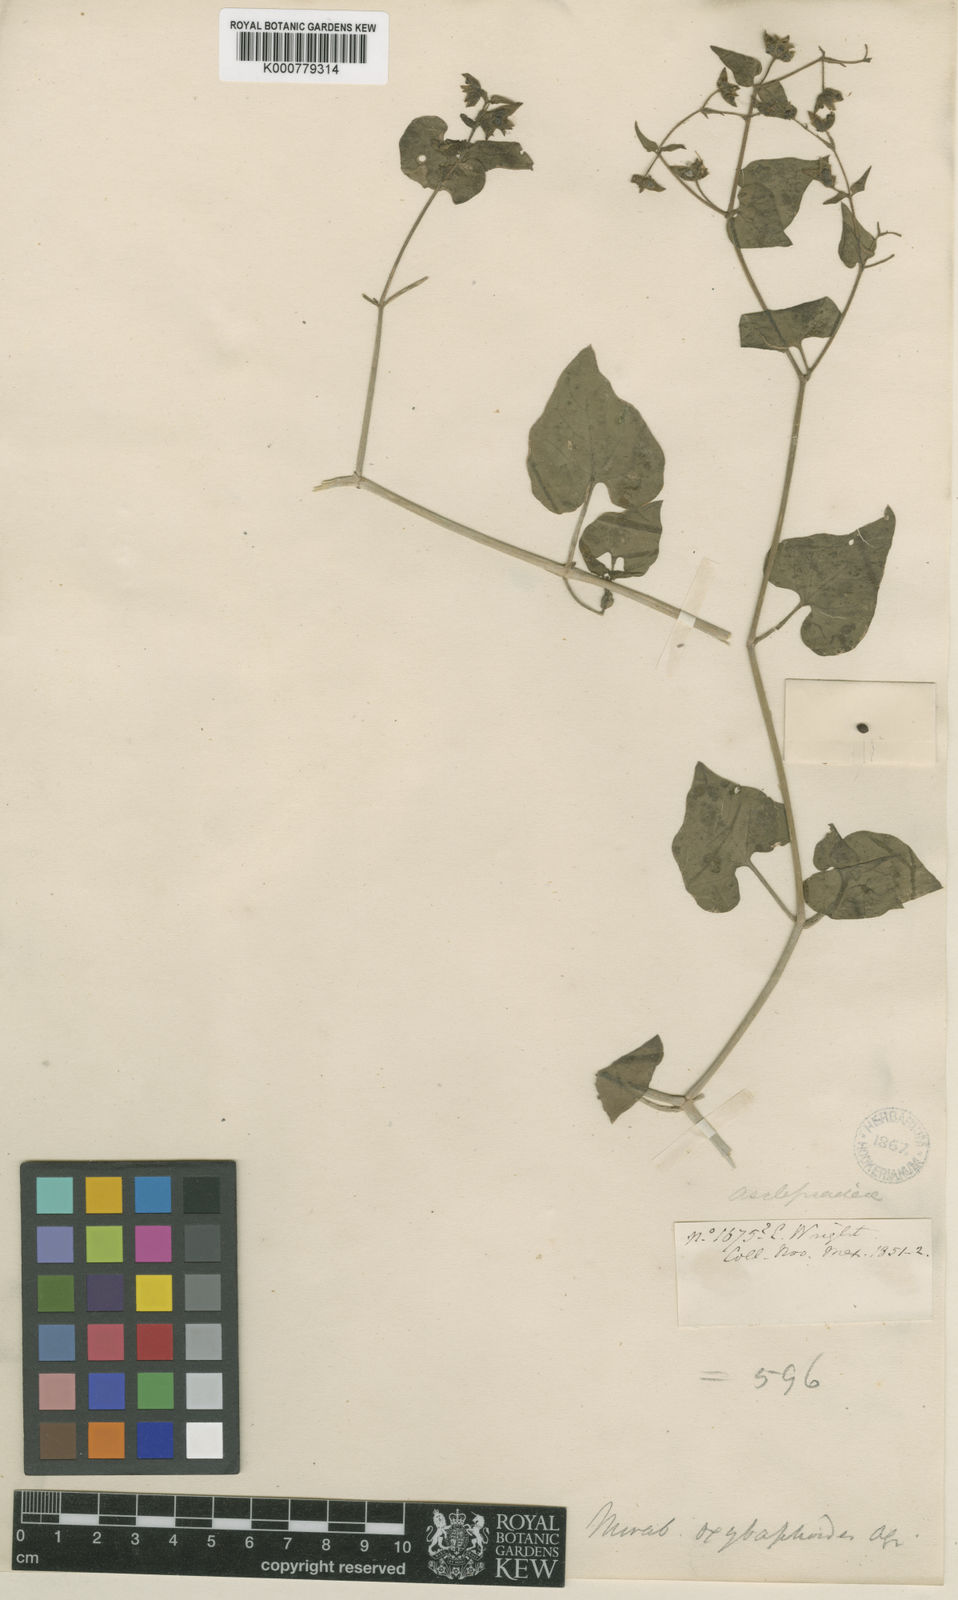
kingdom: Plantae
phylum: Tracheophyta
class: Magnoliopsida
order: Caryophyllales
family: Nyctaginaceae
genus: Mirabilis
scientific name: Mirabilis oxybaphoides
